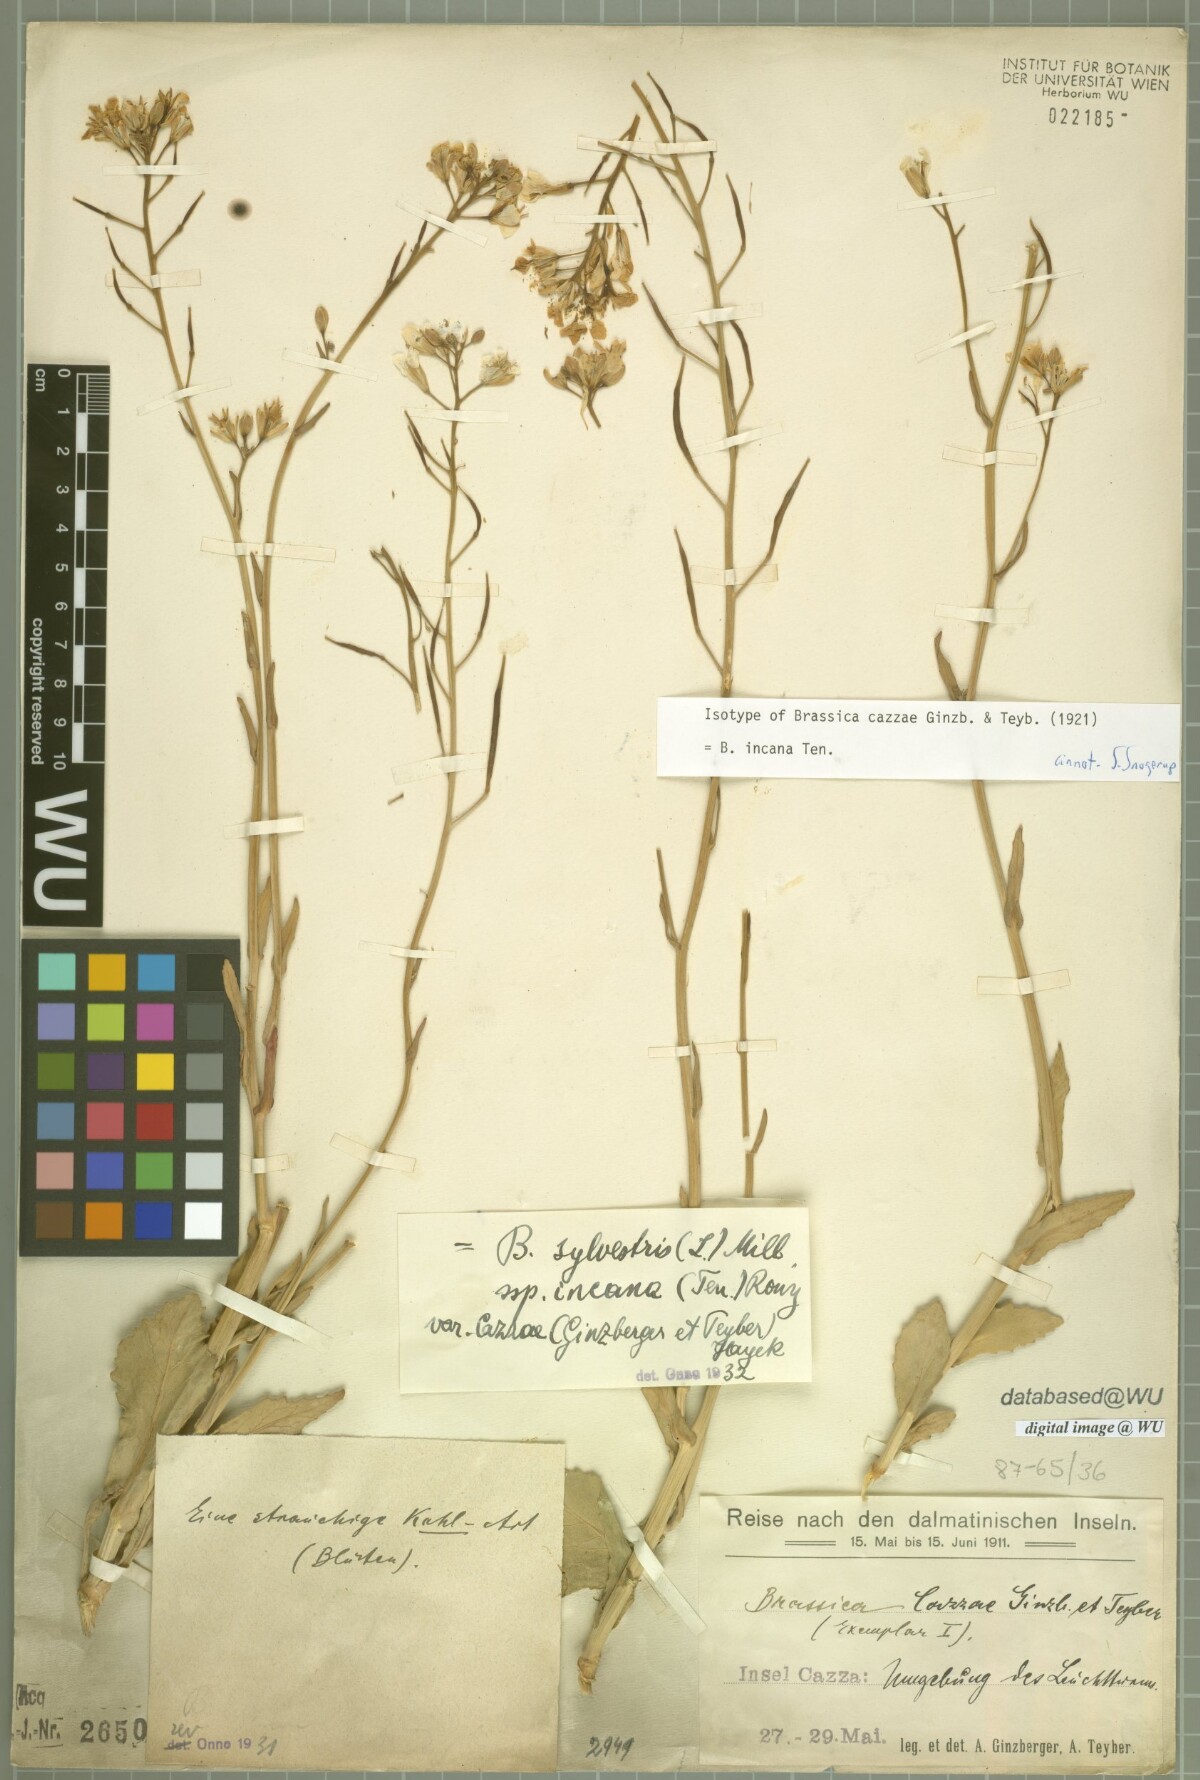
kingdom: Plantae
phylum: Tracheophyta
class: Magnoliopsida
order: Brassicales
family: Brassicaceae
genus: Brassica
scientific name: Brassica incana
